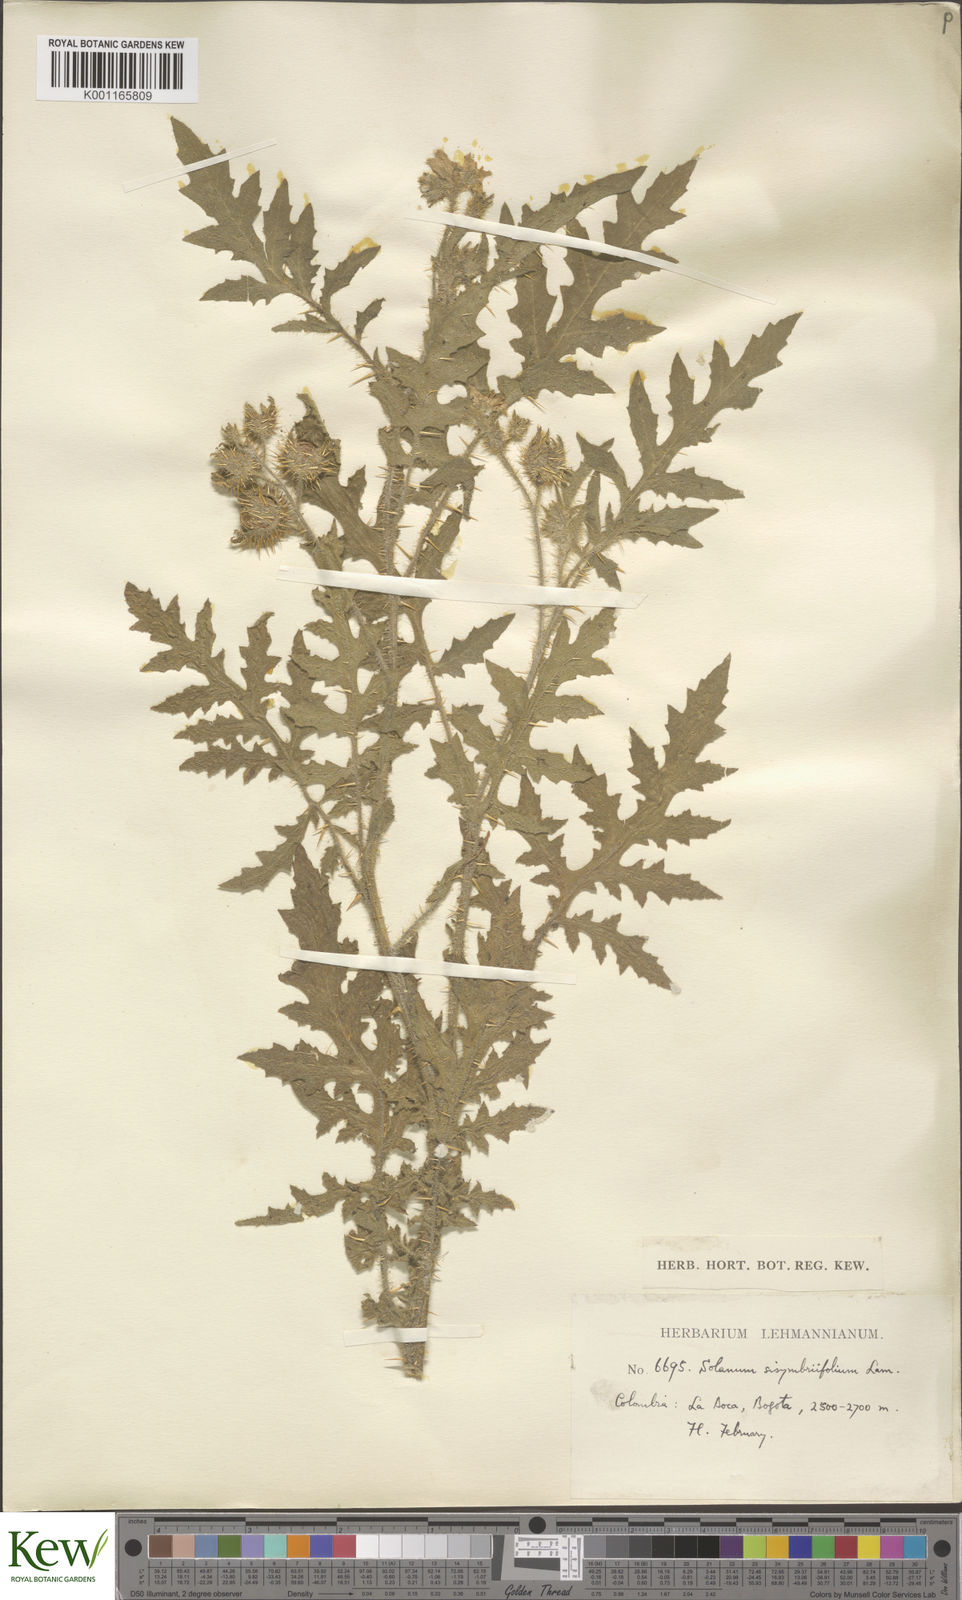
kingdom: Plantae
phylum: Tracheophyta
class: Magnoliopsida
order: Solanales
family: Solanaceae
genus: Solanum
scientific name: Solanum sisymbriifolium
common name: Red buffalo-bur
